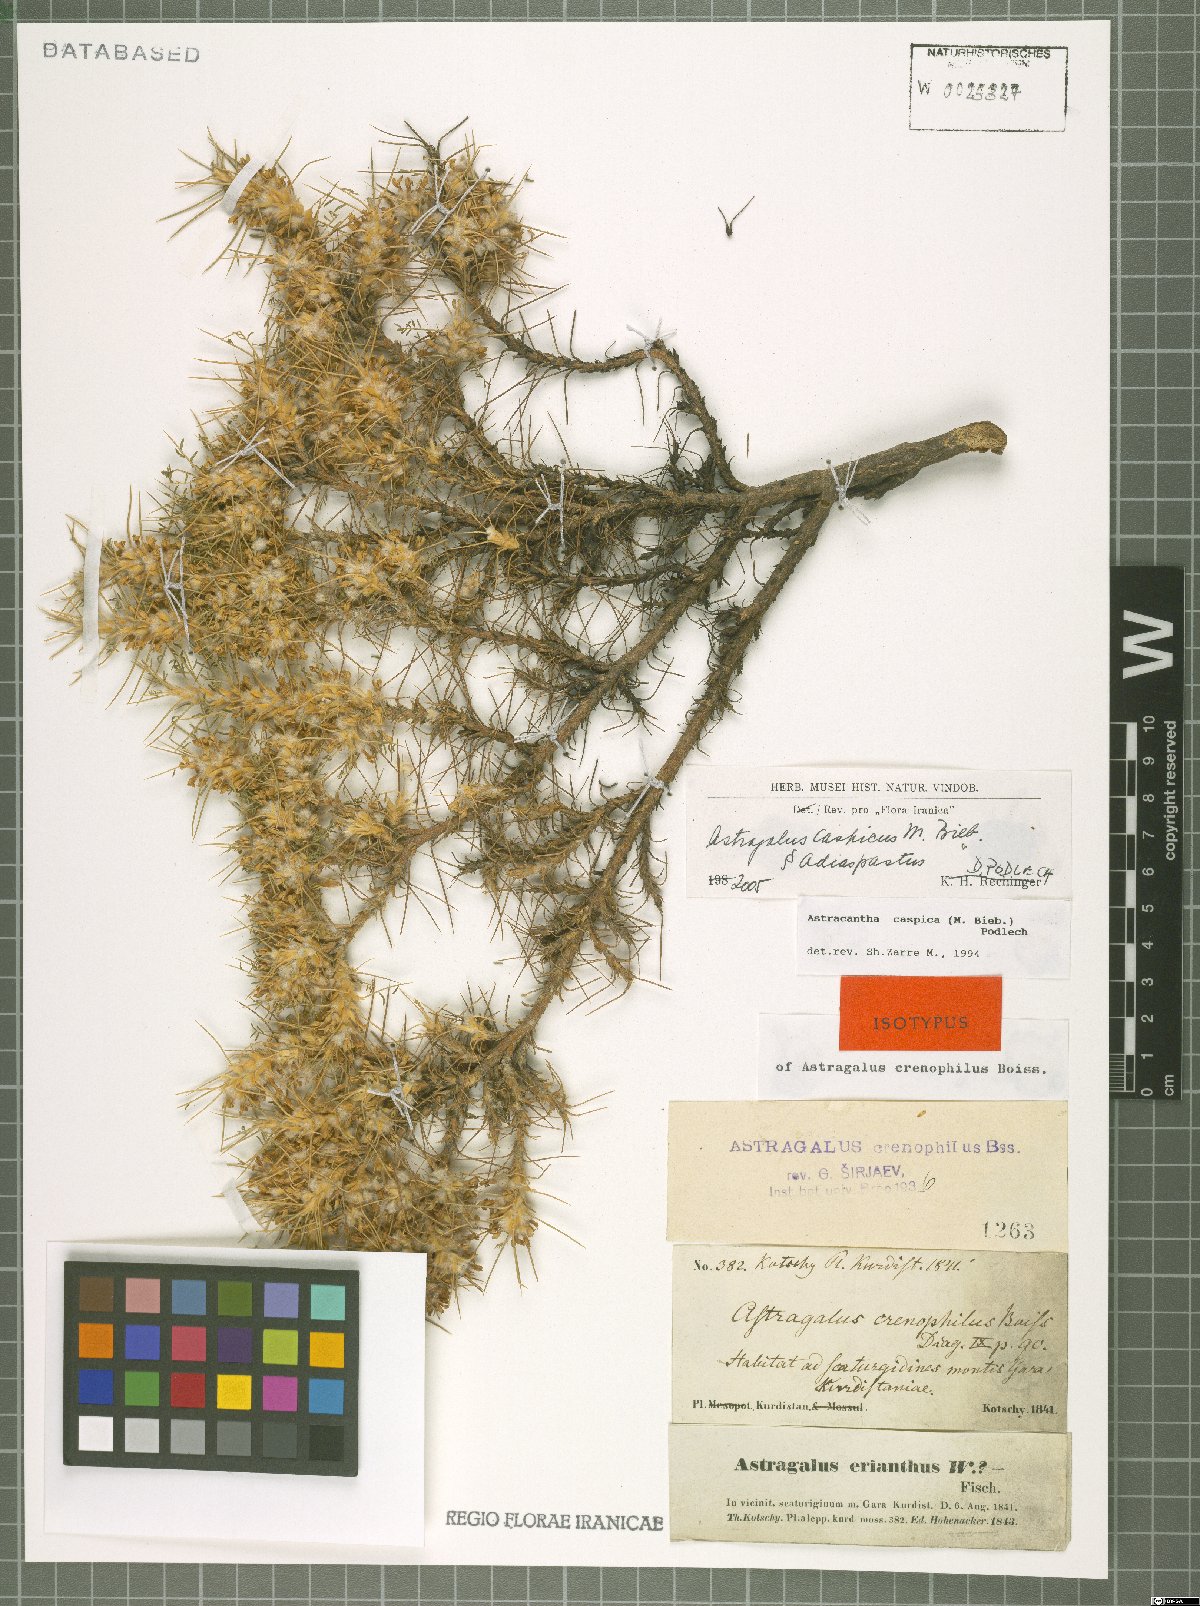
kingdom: Plantae
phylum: Tracheophyta
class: Magnoliopsida
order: Fabales
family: Fabaceae
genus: Astragalus
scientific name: Astragalus caspicus
